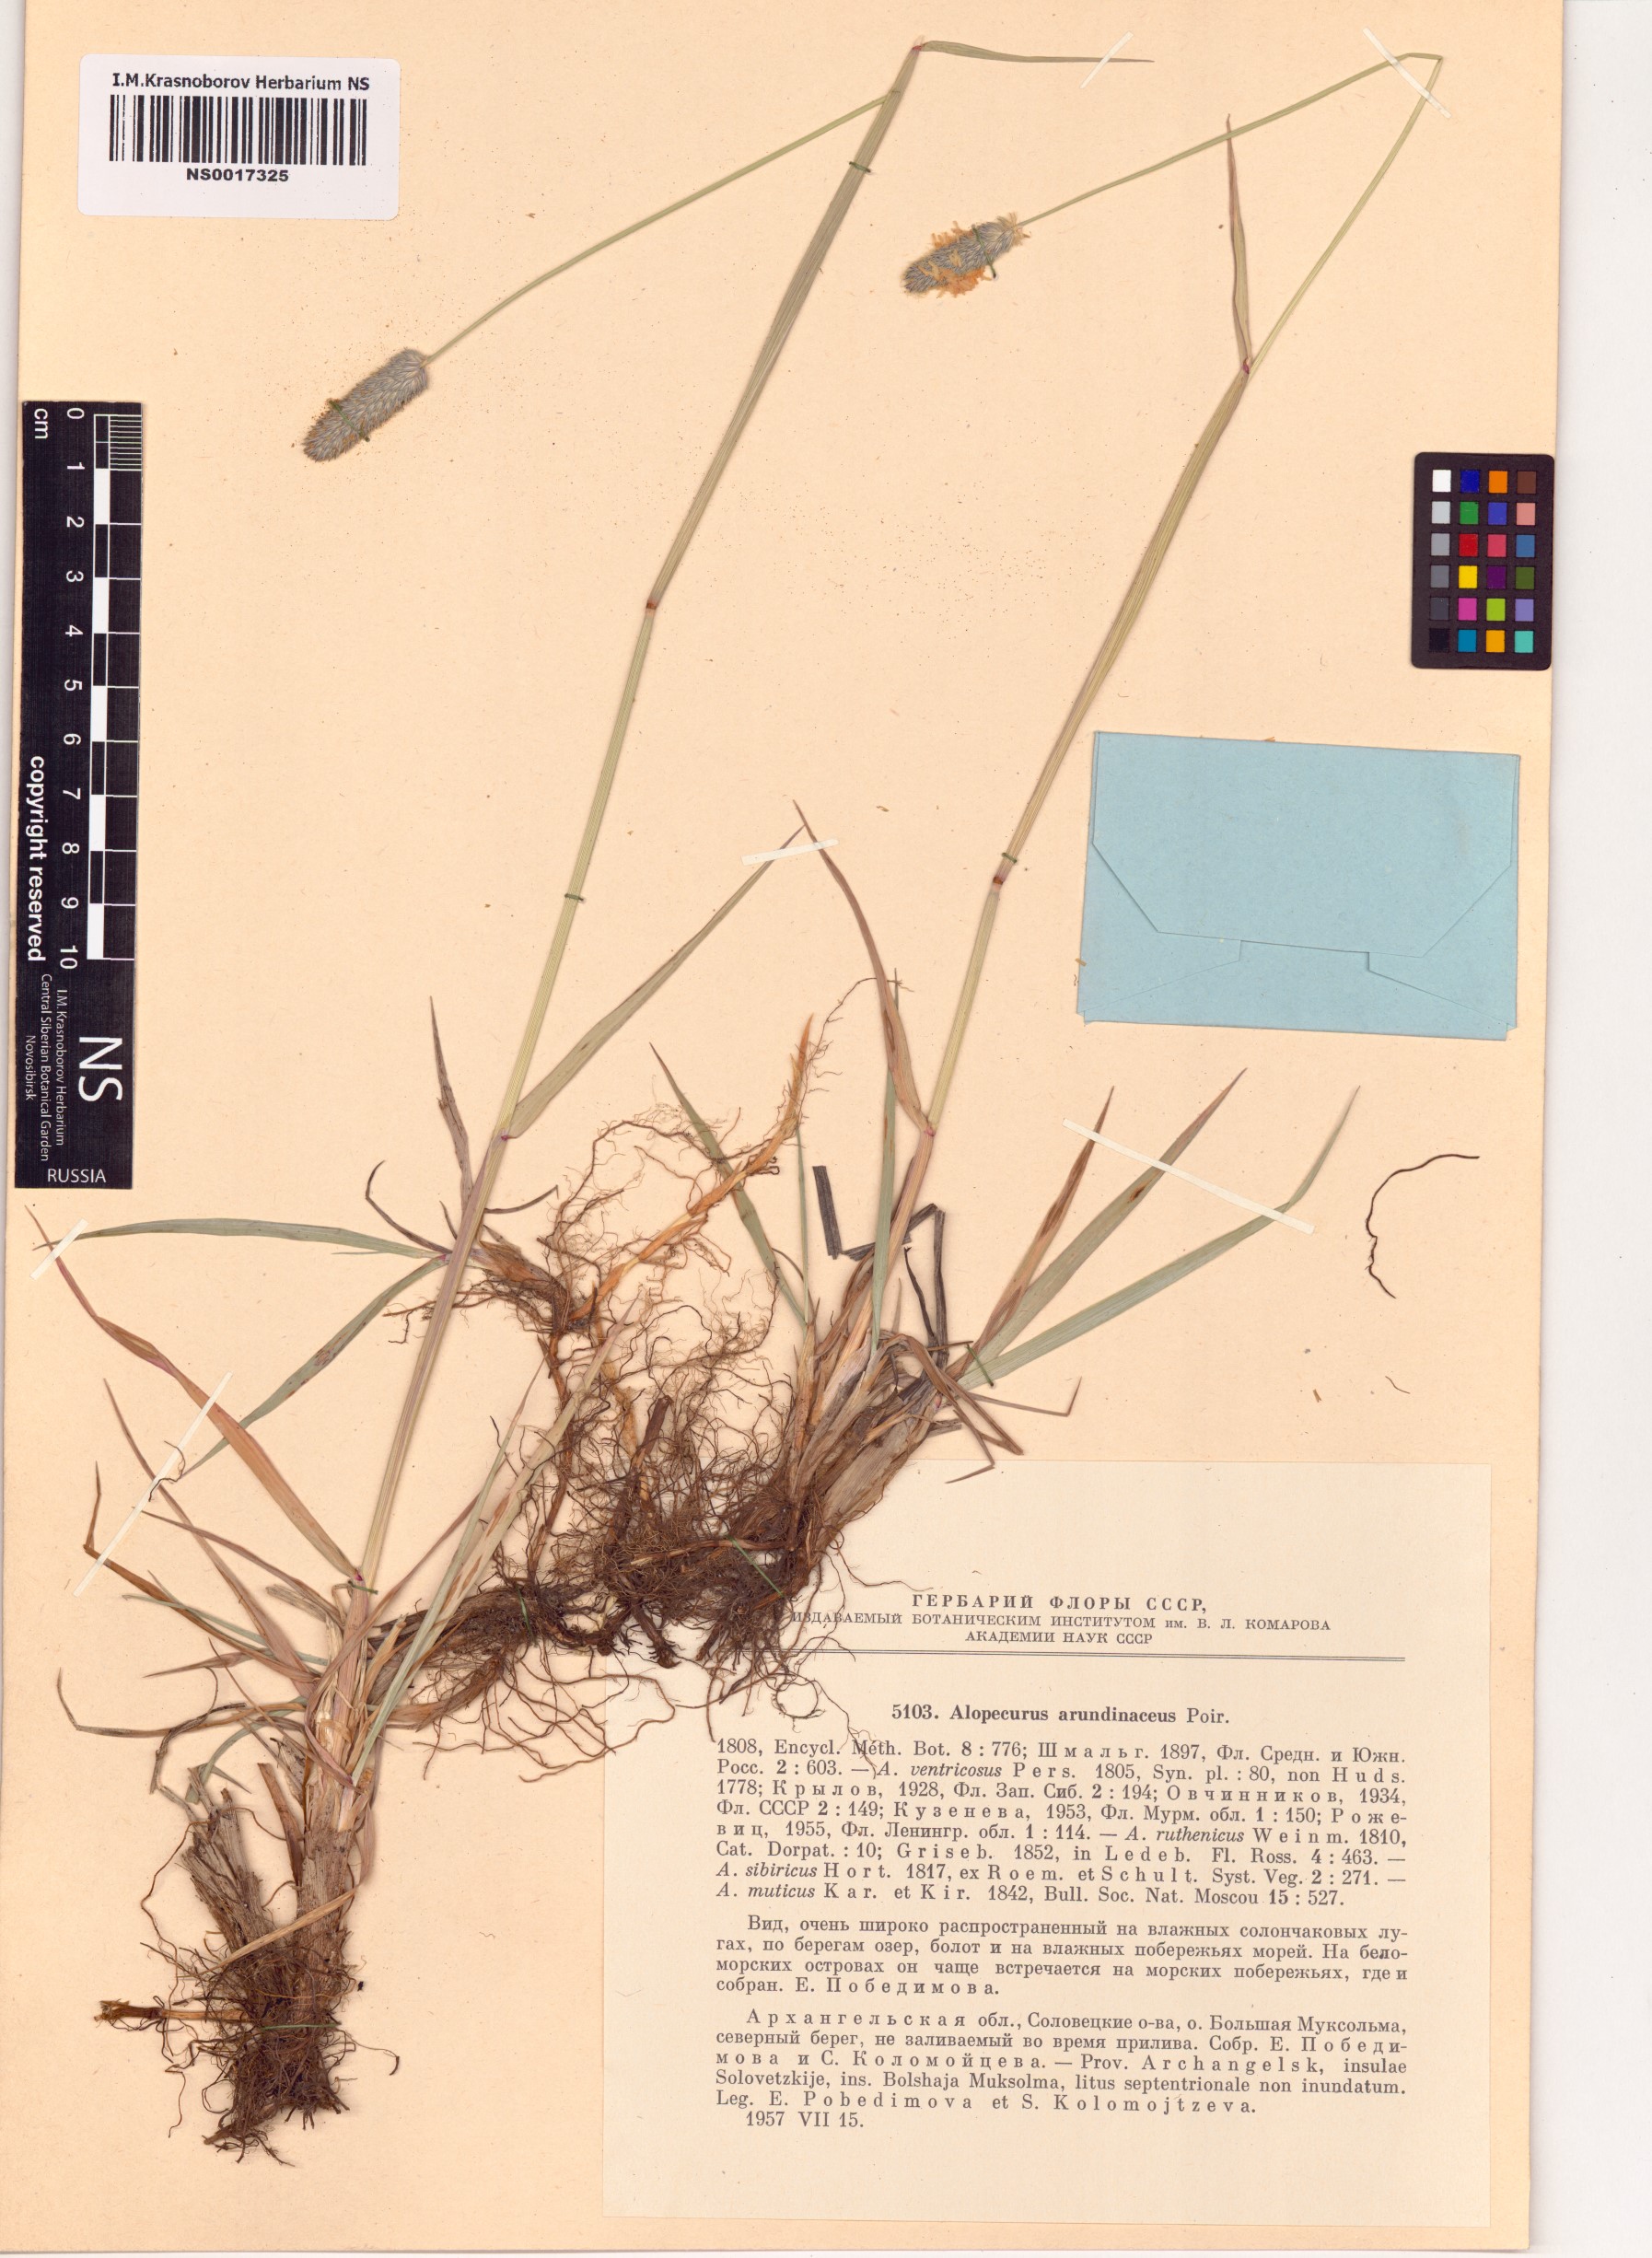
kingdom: Plantae
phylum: Tracheophyta
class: Liliopsida
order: Poales
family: Poaceae
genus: Alopecurus
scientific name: Alopecurus arundinaceus
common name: Creeping meadow foxtail
